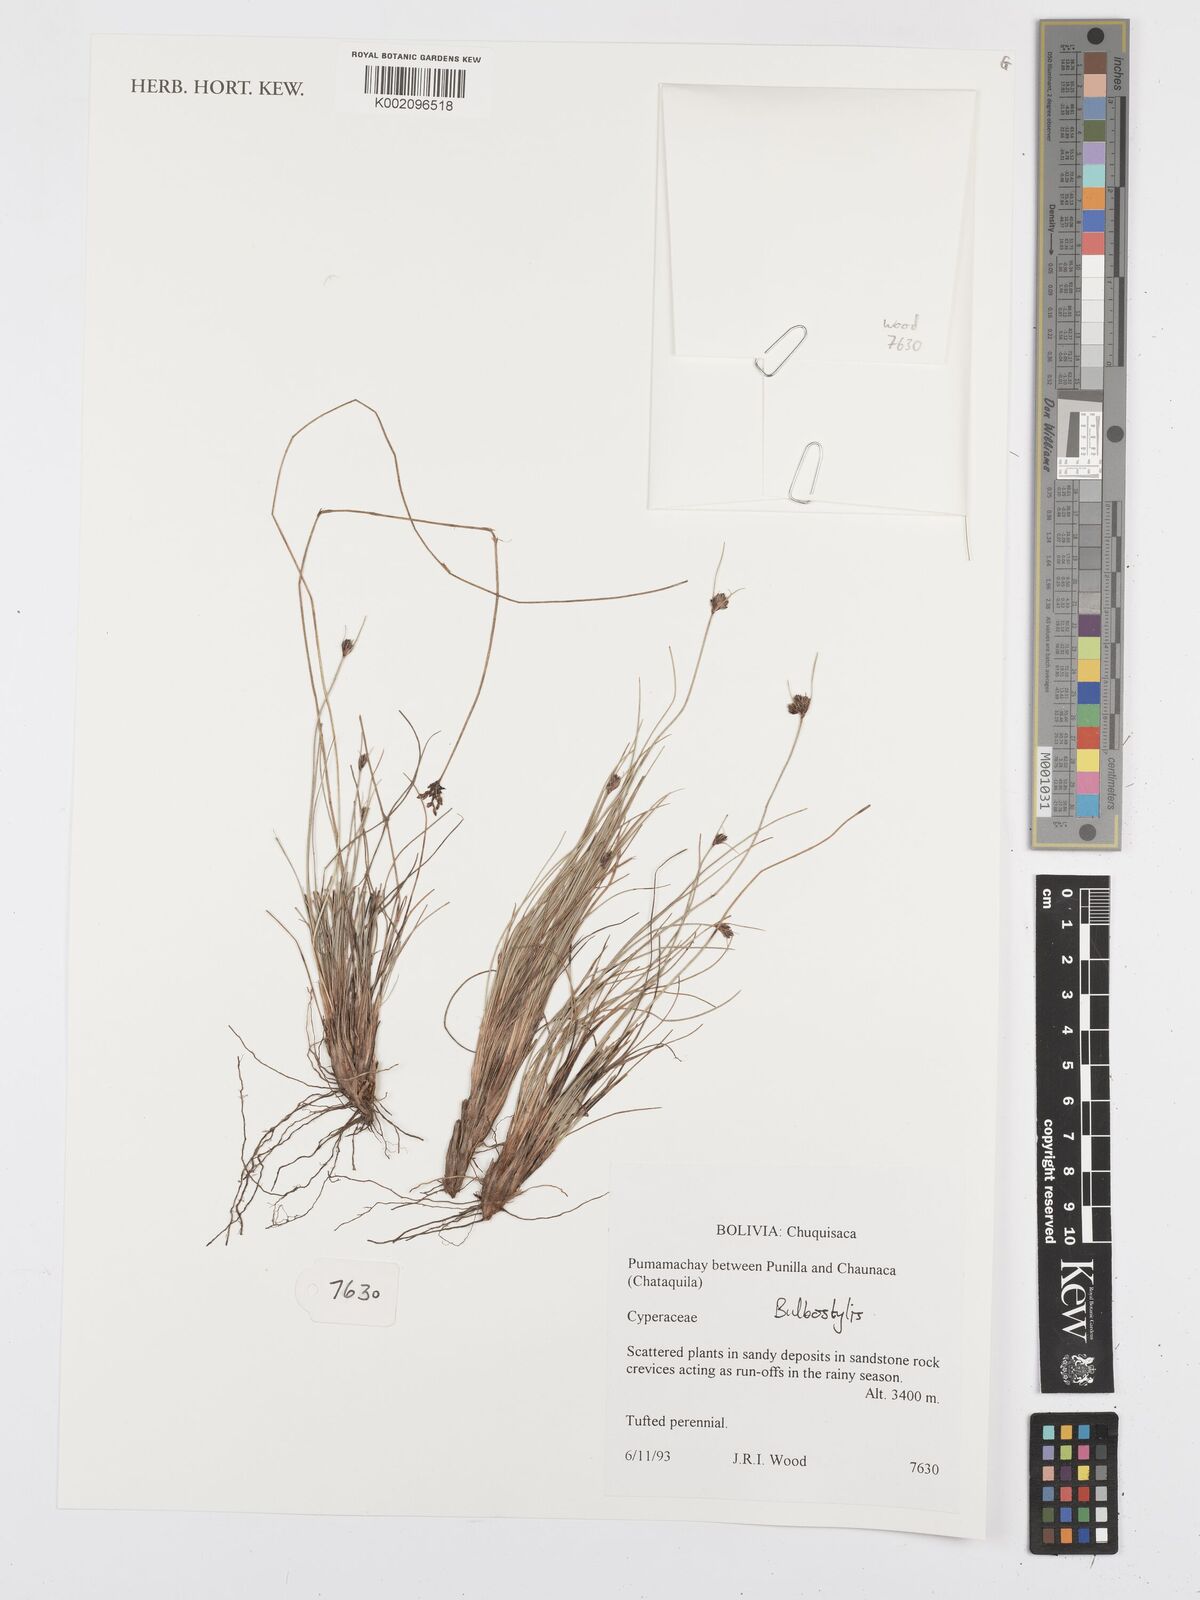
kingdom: Plantae
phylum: Tracheophyta
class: Liliopsida
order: Poales
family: Cyperaceae
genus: Bulbostylis
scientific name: Bulbostylis
